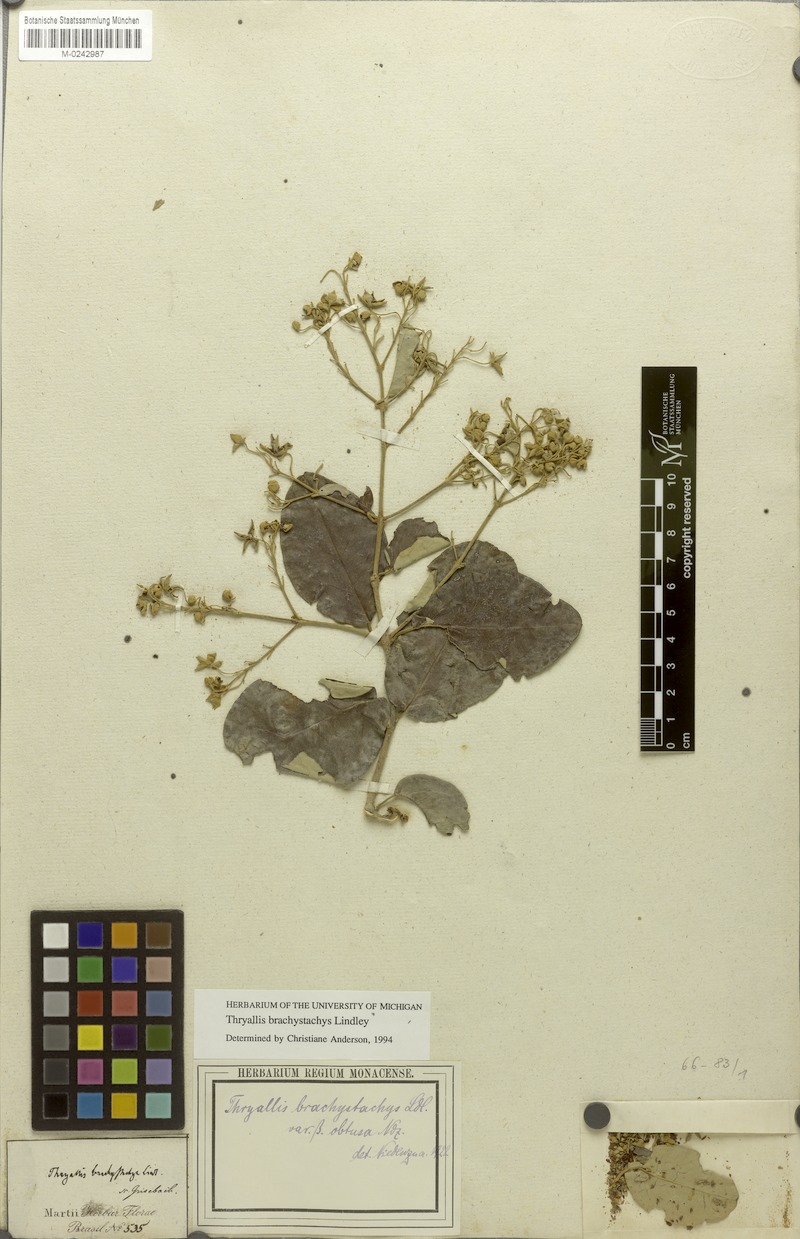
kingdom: Plantae
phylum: Tracheophyta
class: Magnoliopsida
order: Malpighiales
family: Malpighiaceae
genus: Thryallis
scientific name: Thryallis brachystachys
